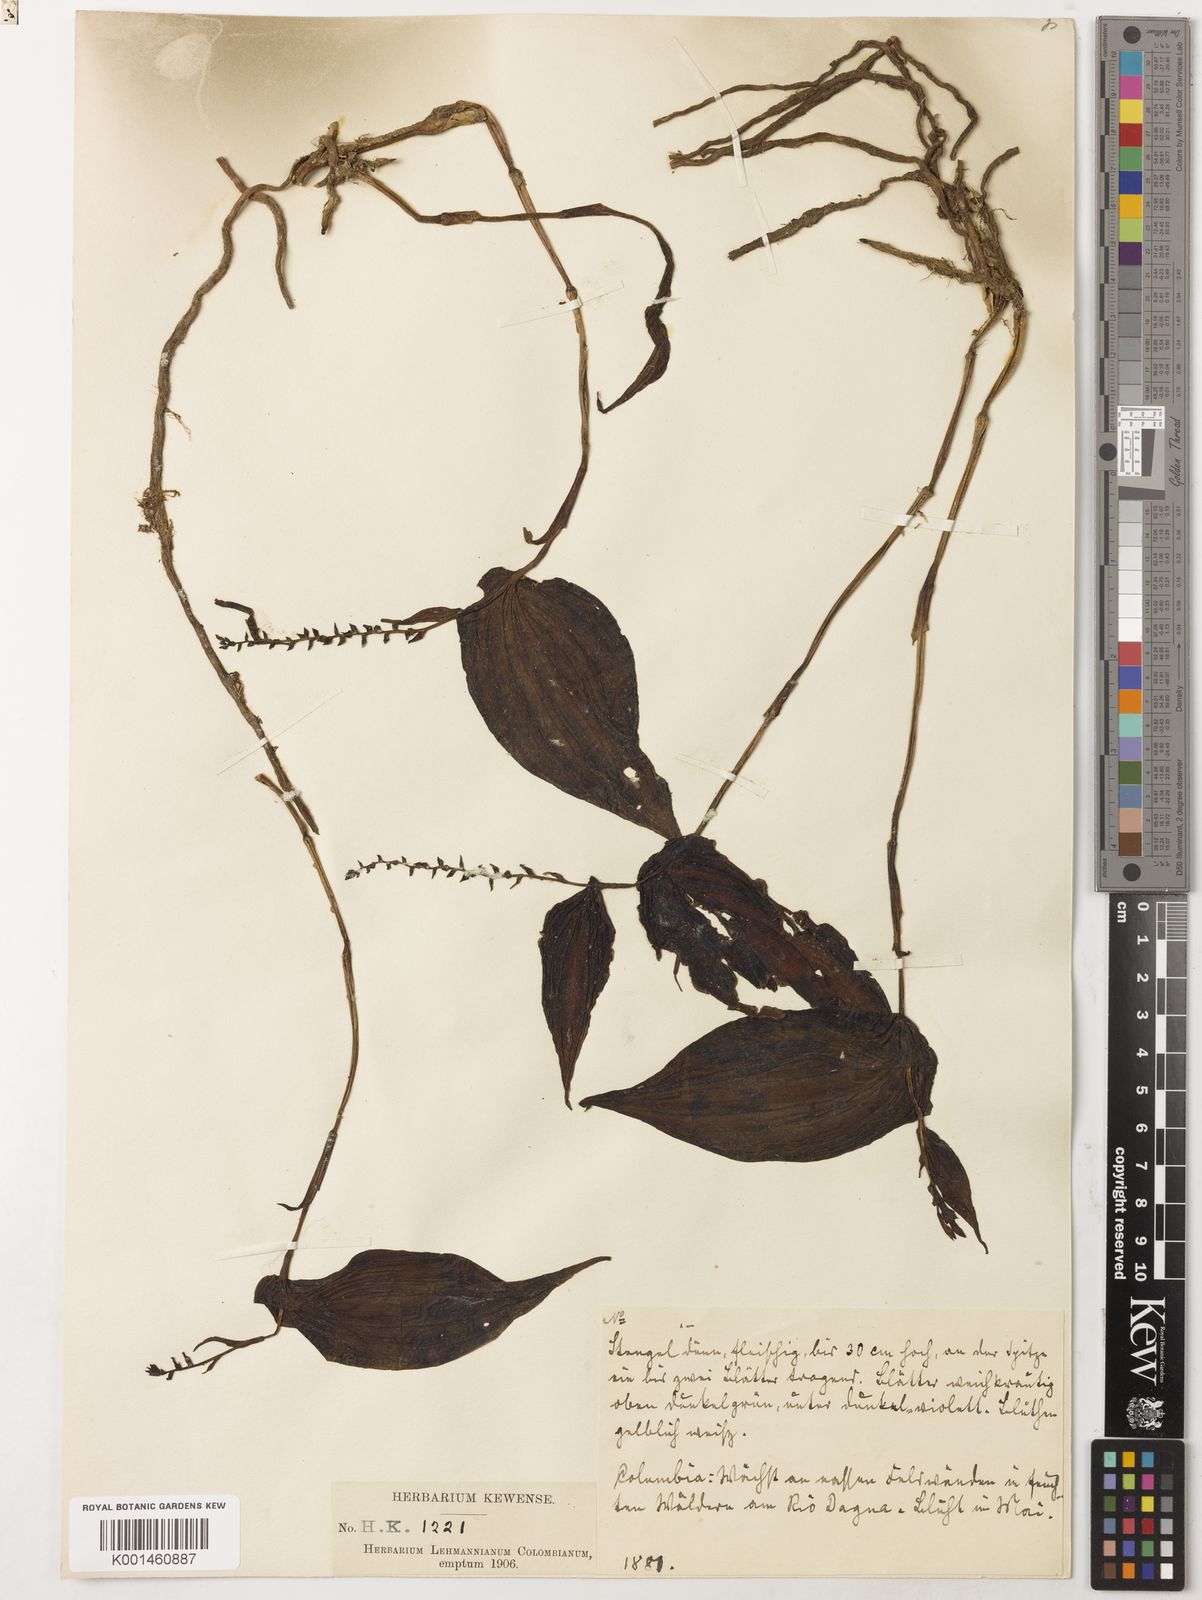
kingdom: Plantae
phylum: Tracheophyta
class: Liliopsida
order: Asparagales
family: Orchidaceae
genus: Monophyllorchis
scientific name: Monophyllorchis microstyloides
